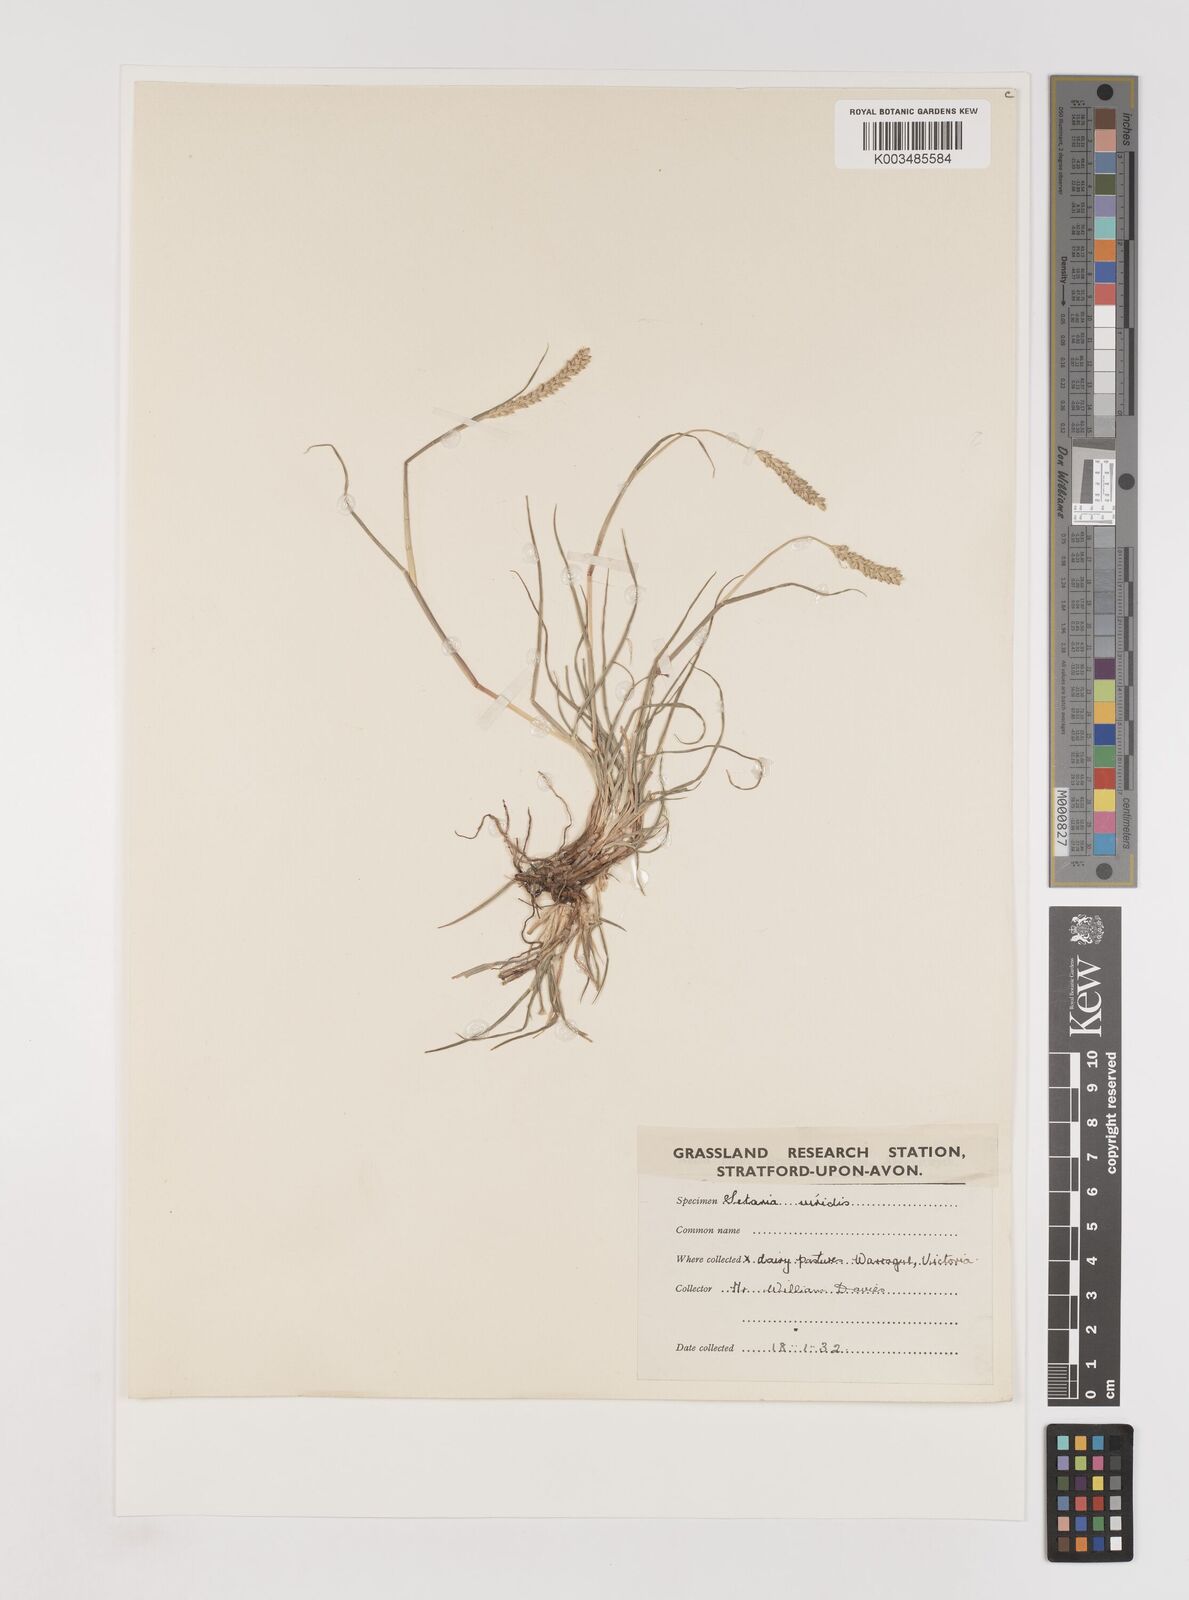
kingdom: Plantae
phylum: Tracheophyta
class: Liliopsida
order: Poales
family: Poaceae
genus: Setaria
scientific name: Setaria
